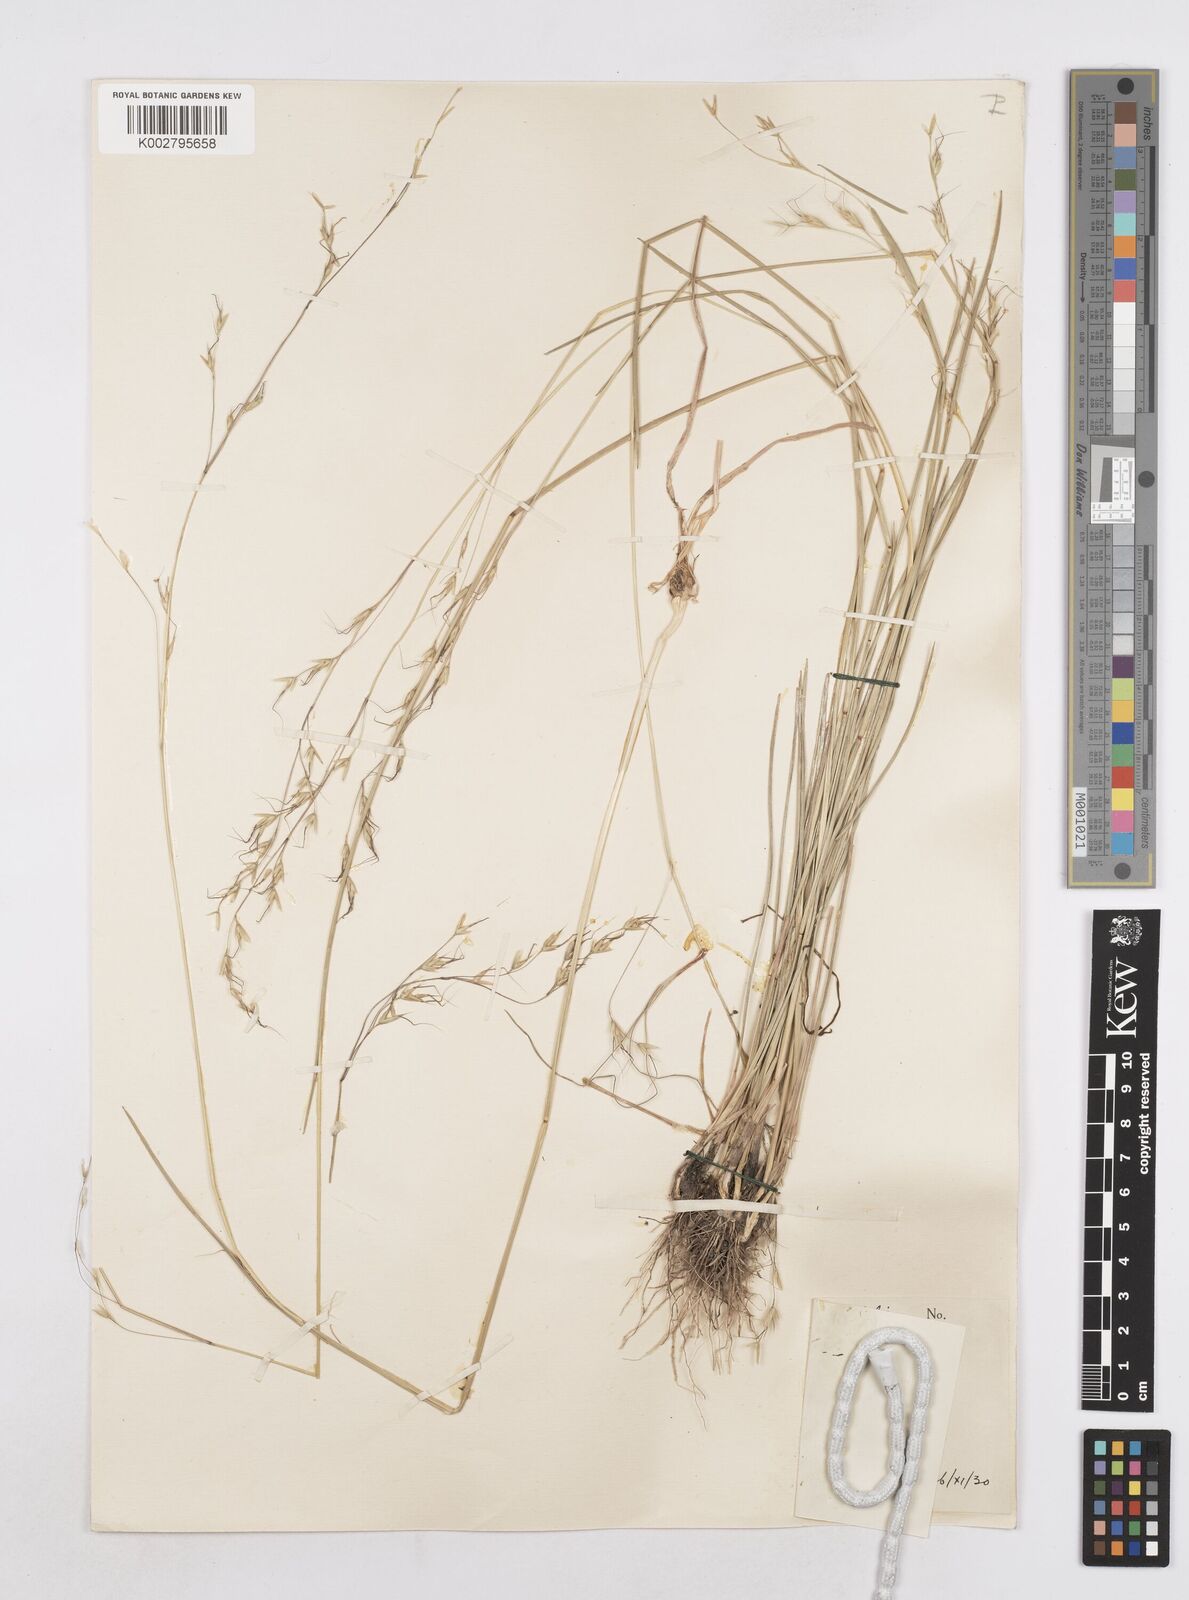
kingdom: Plantae
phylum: Tracheophyta
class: Liliopsida
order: Poales
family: Poaceae
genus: Amphibromus
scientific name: Amphibromus neesii
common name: Australian wallaby grass
